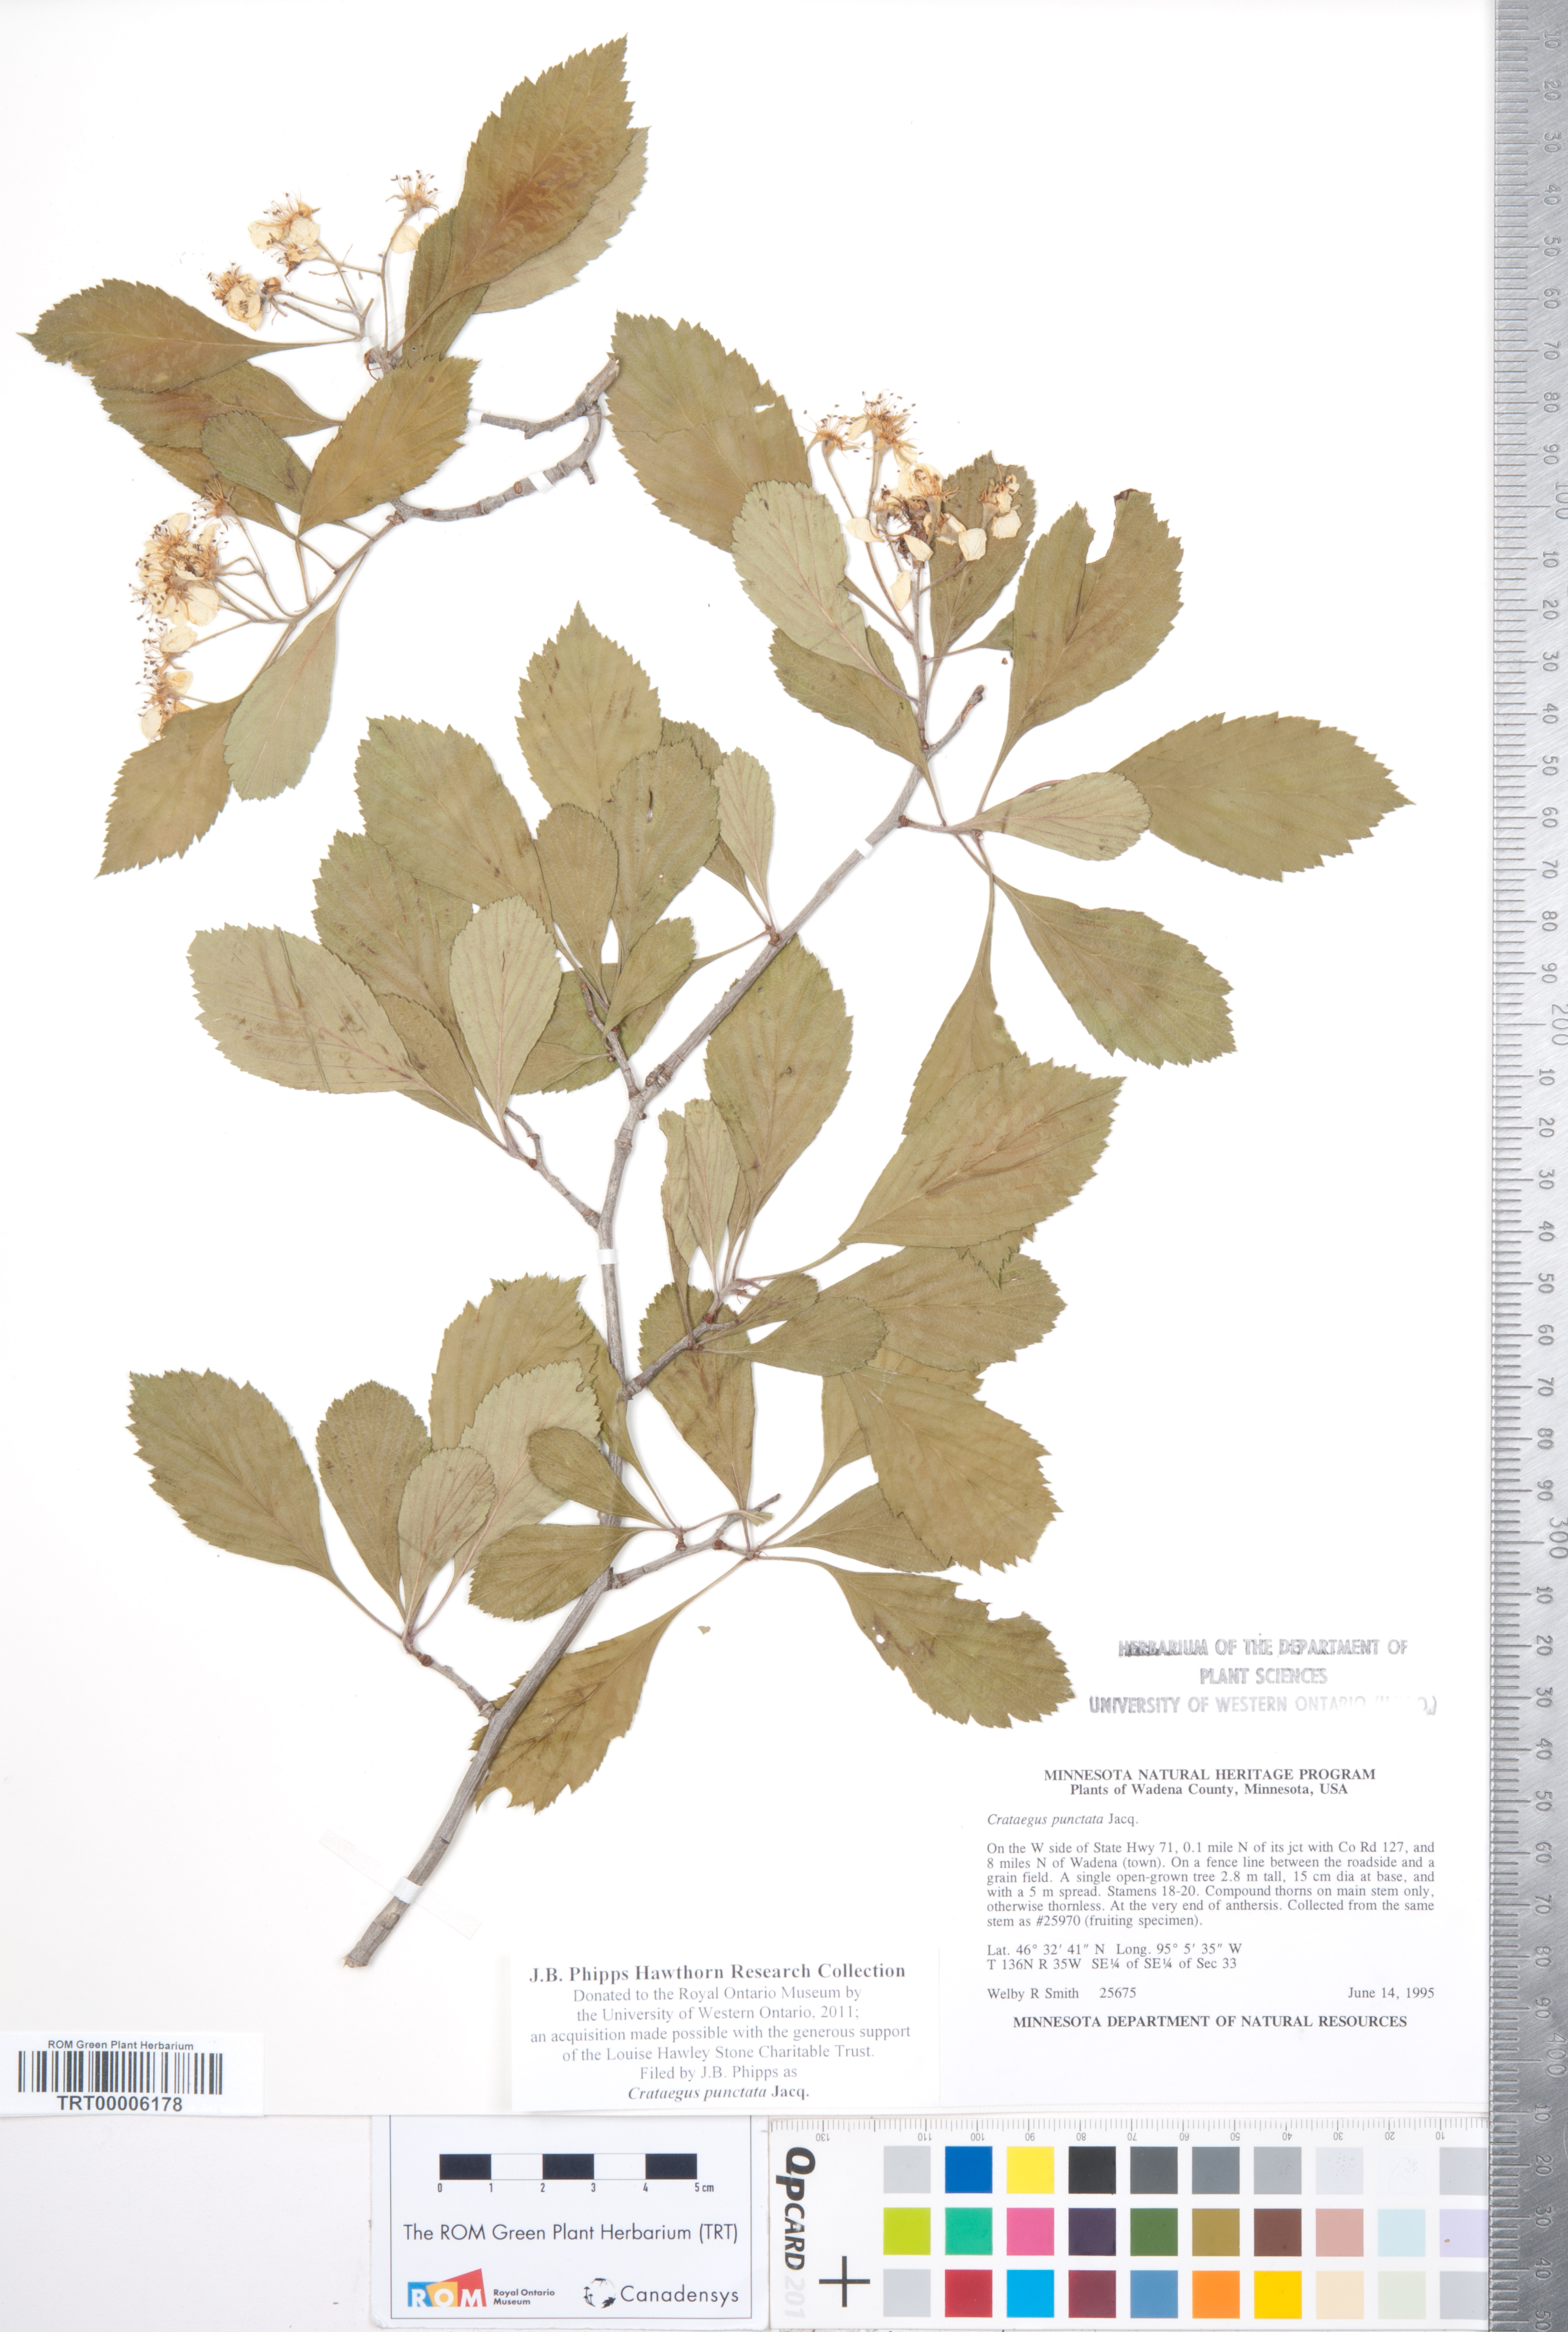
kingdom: Plantae
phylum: Tracheophyta
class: Magnoliopsida
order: Rosales
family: Rosaceae
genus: Crataegus
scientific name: Crataegus punctata
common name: Dotted hawthorn
